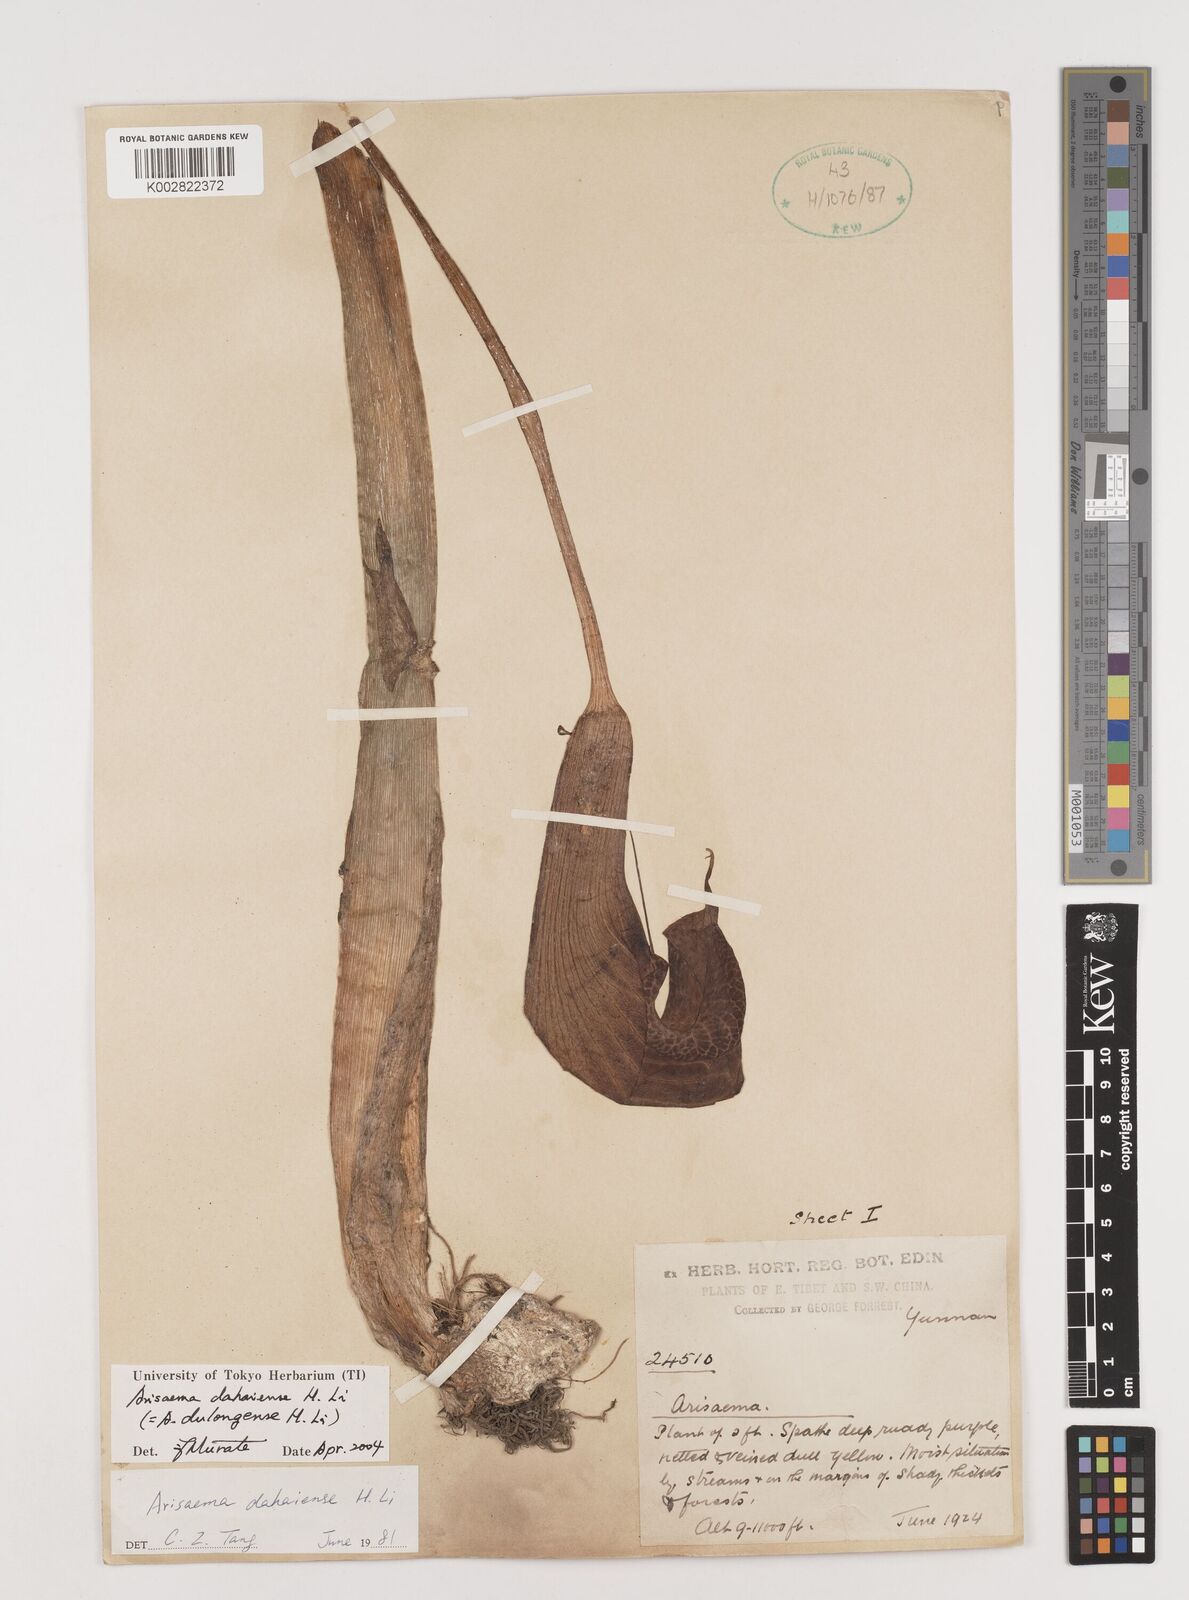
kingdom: Plantae
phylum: Tracheophyta
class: Liliopsida
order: Alismatales
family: Araceae
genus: Arisaema
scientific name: Arisaema dahaiense
